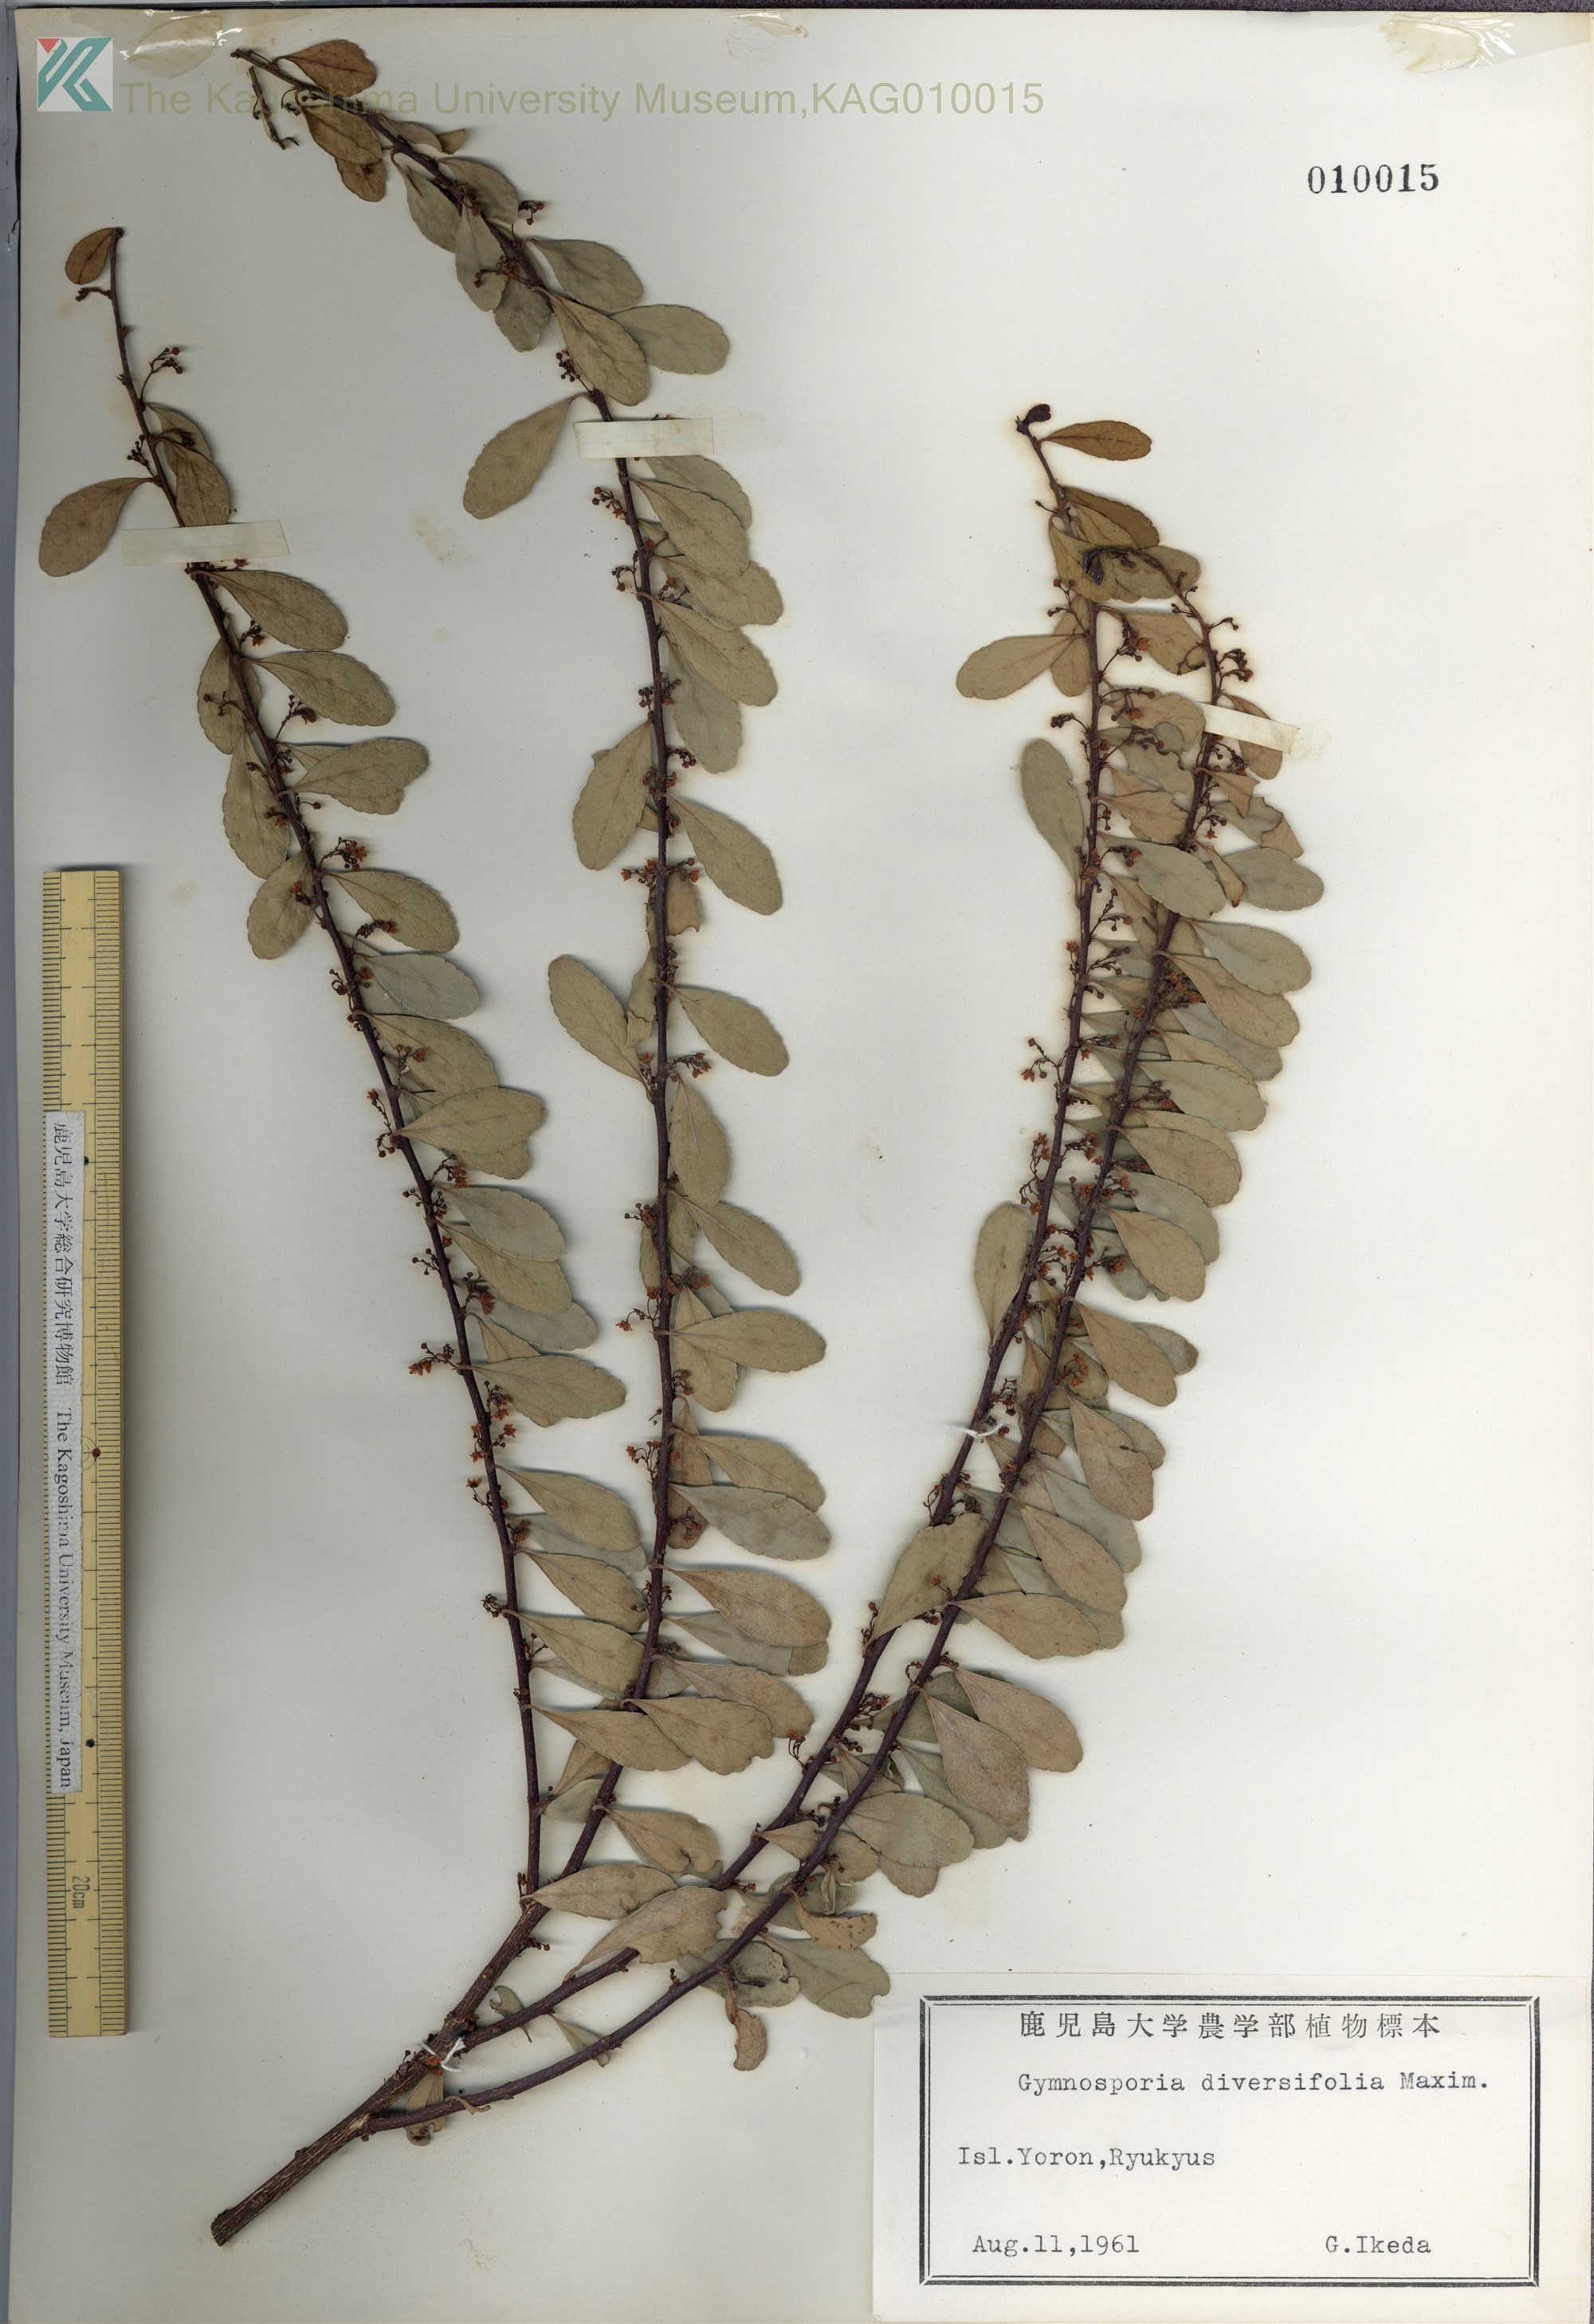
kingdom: Plantae
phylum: Tracheophyta
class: Magnoliopsida
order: Celastrales
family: Celastraceae
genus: Gymnosporia
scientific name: Gymnosporia diversifolia
